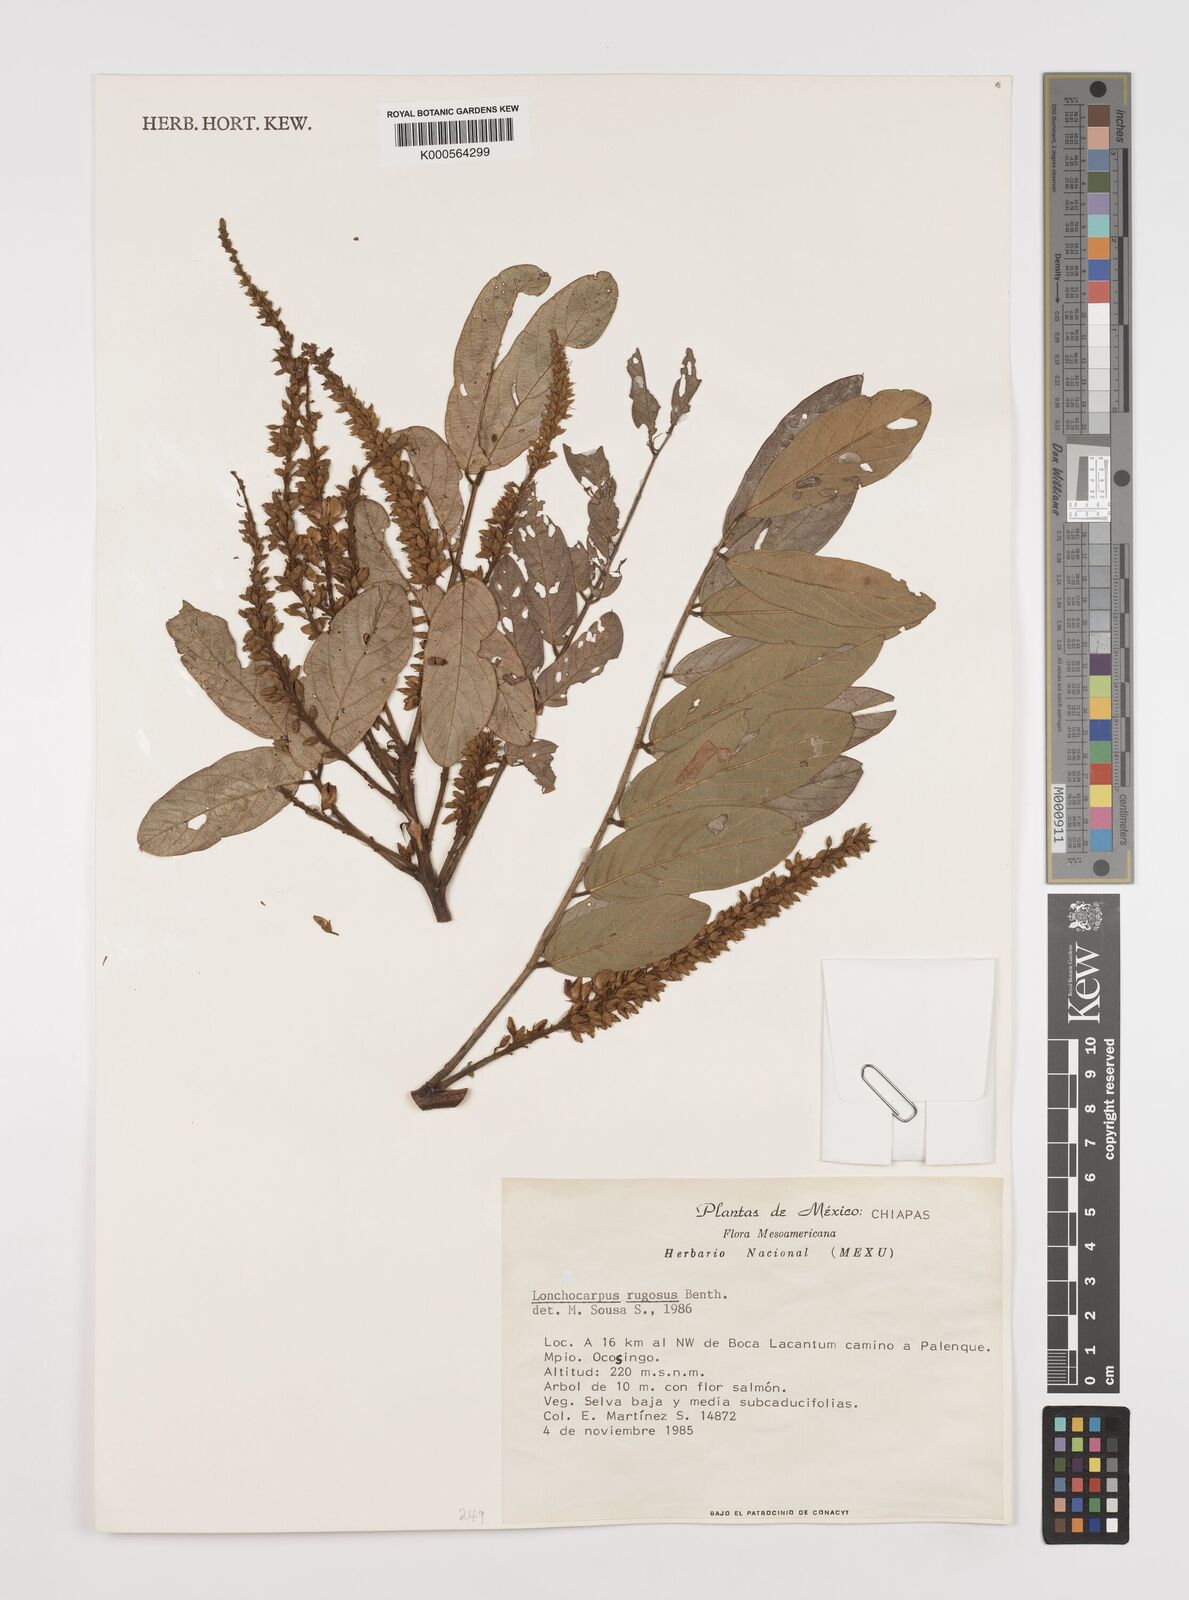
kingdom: Plantae
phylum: Tracheophyta
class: Magnoliopsida
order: Fabales
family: Fabaceae
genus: Lonchocarpus
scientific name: Lonchocarpus rugosus
